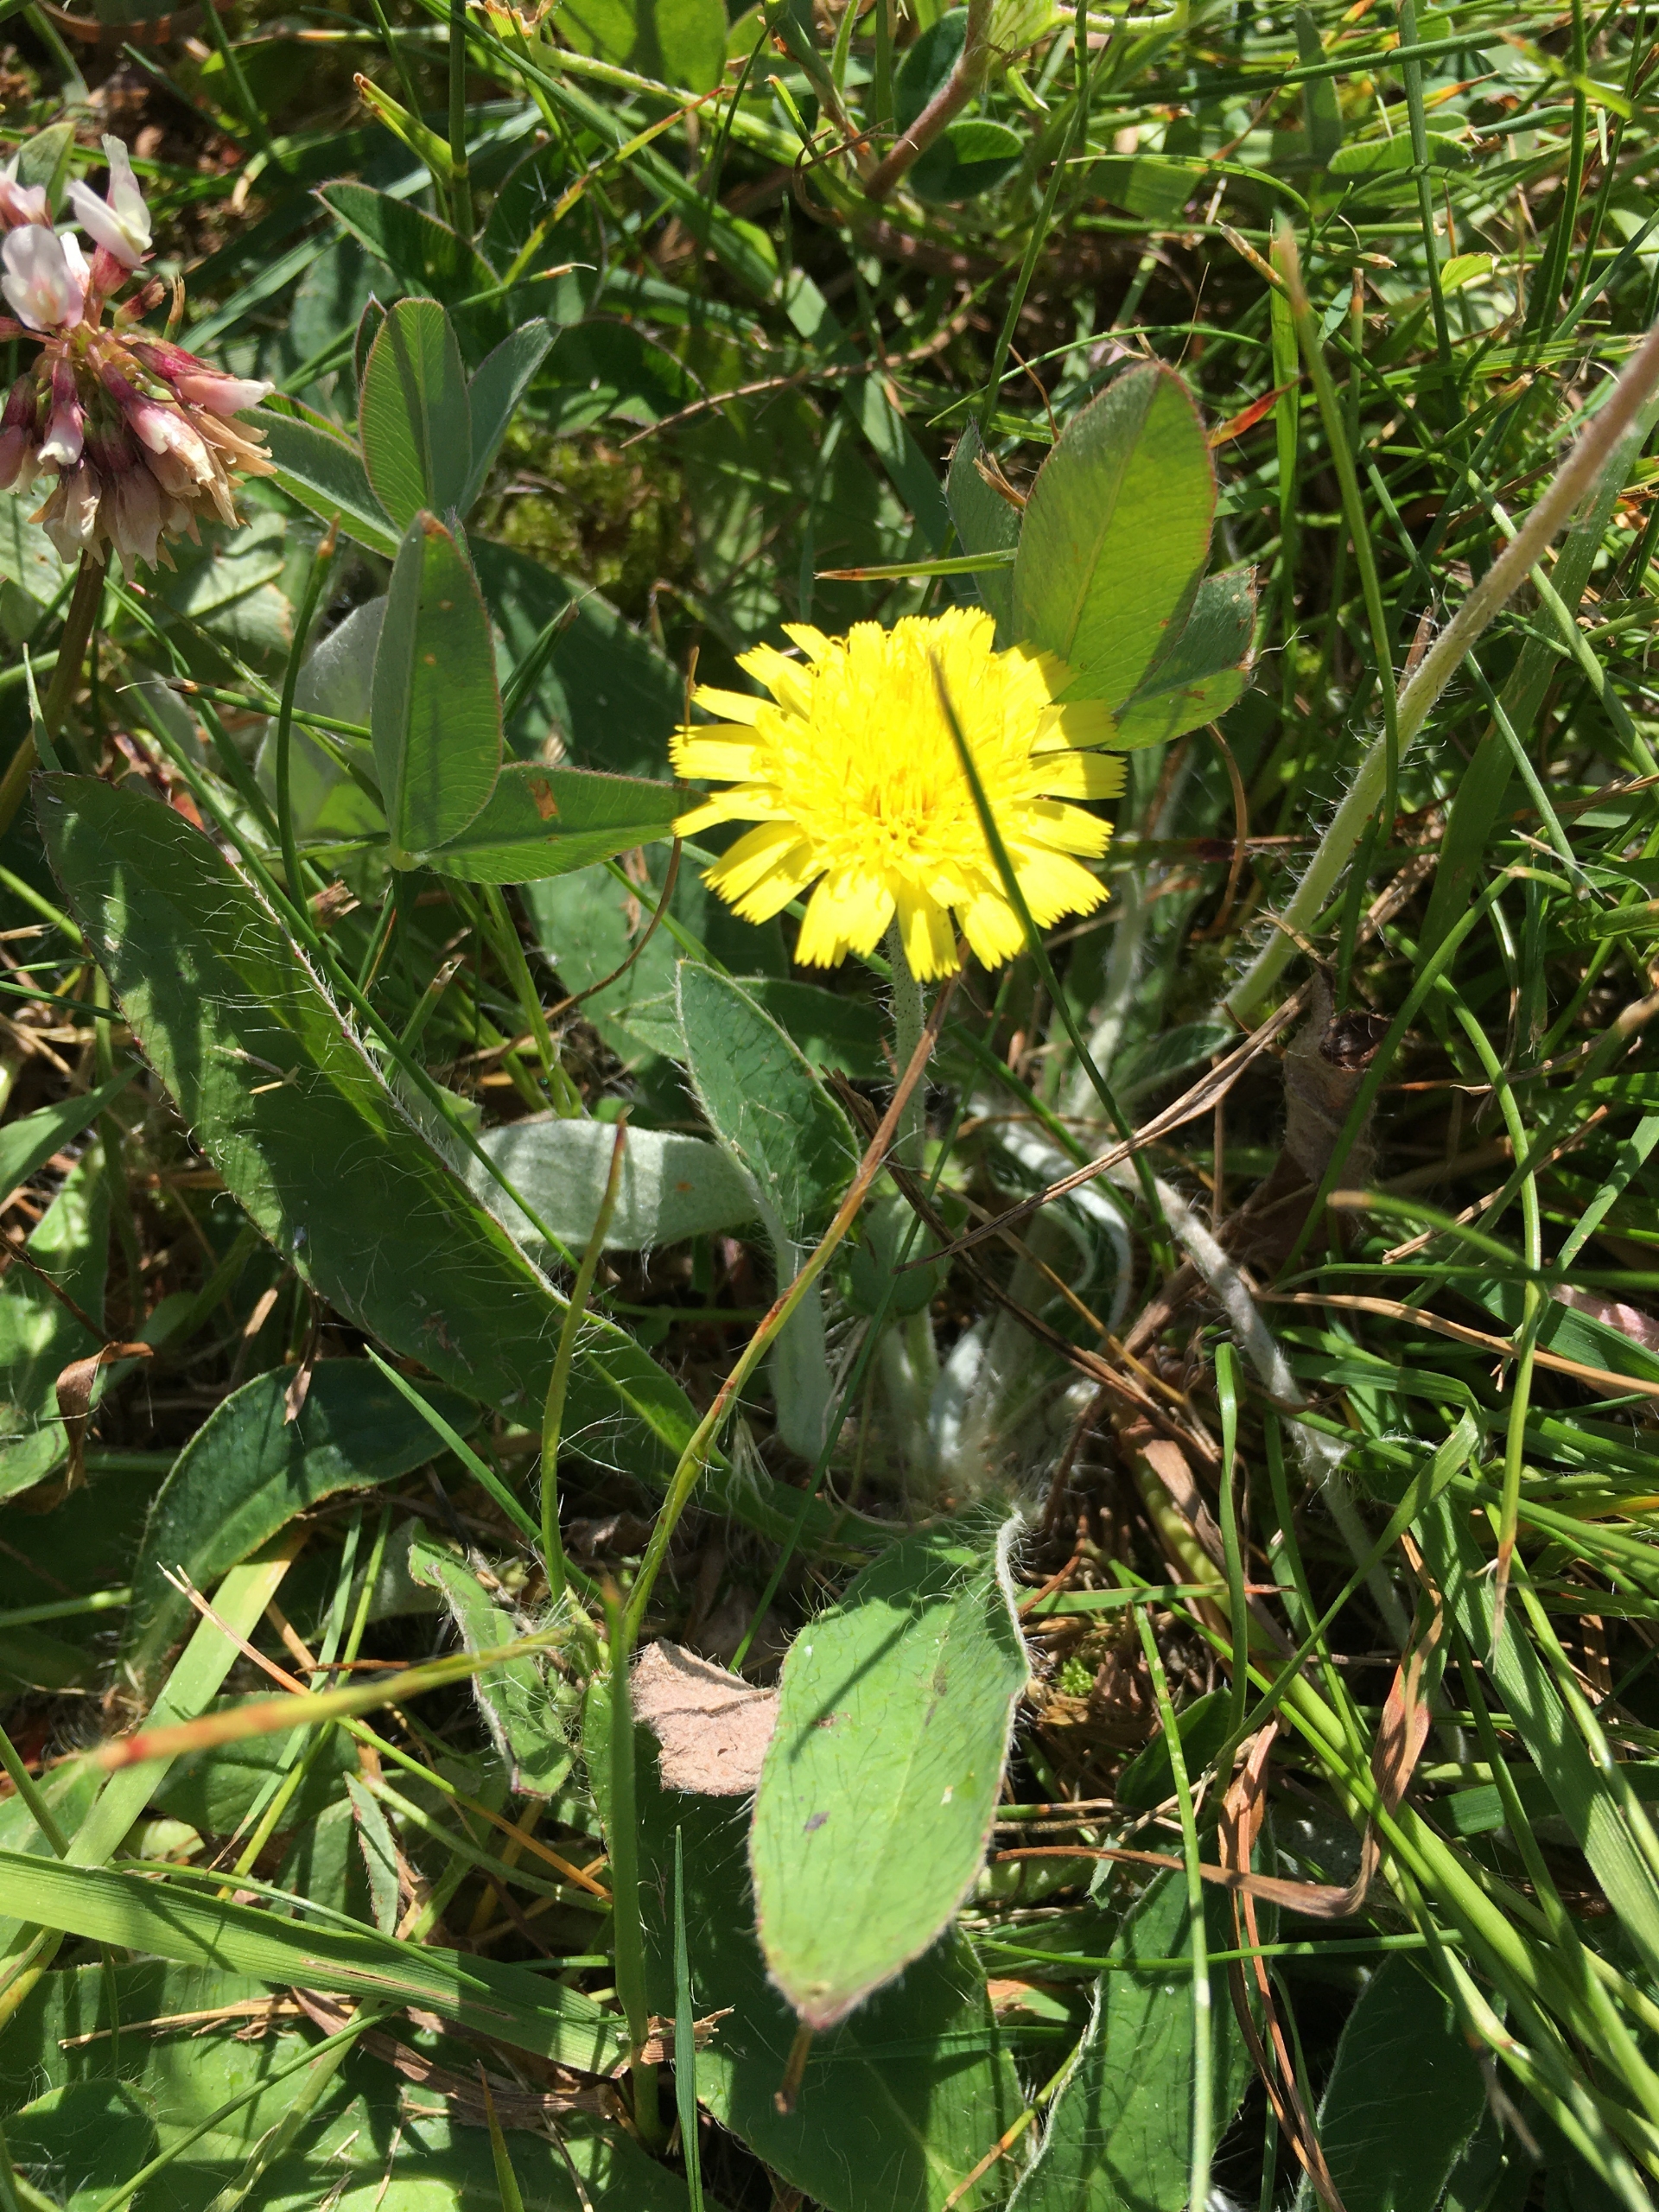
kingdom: Plantae
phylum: Tracheophyta
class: Magnoliopsida
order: Asterales
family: Asteraceae
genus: Pilosella
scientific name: Pilosella officinarum
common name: Håret høgeurt
